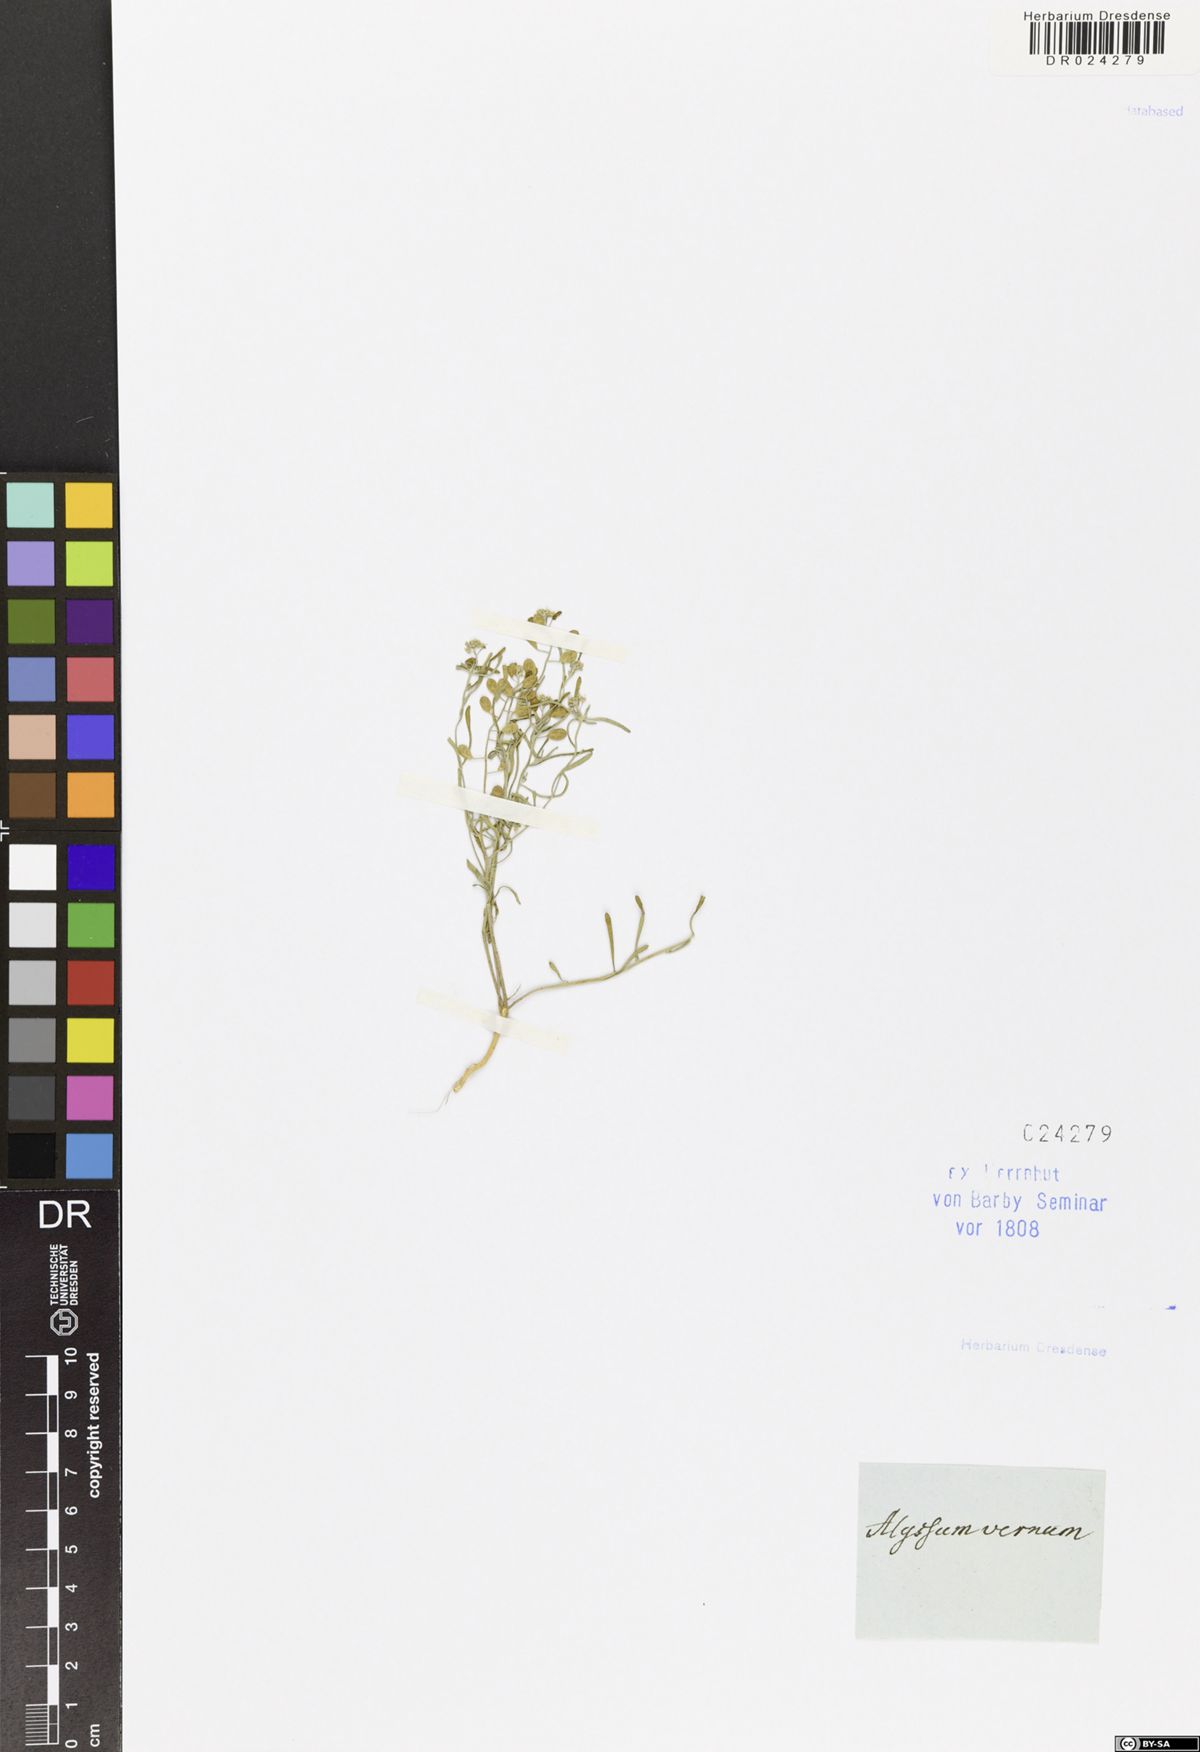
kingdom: Plantae
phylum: Tracheophyta
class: Magnoliopsida
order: Brassicales
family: Brassicaceae
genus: Alyssum
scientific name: Alyssum montanum
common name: Mountain alison
